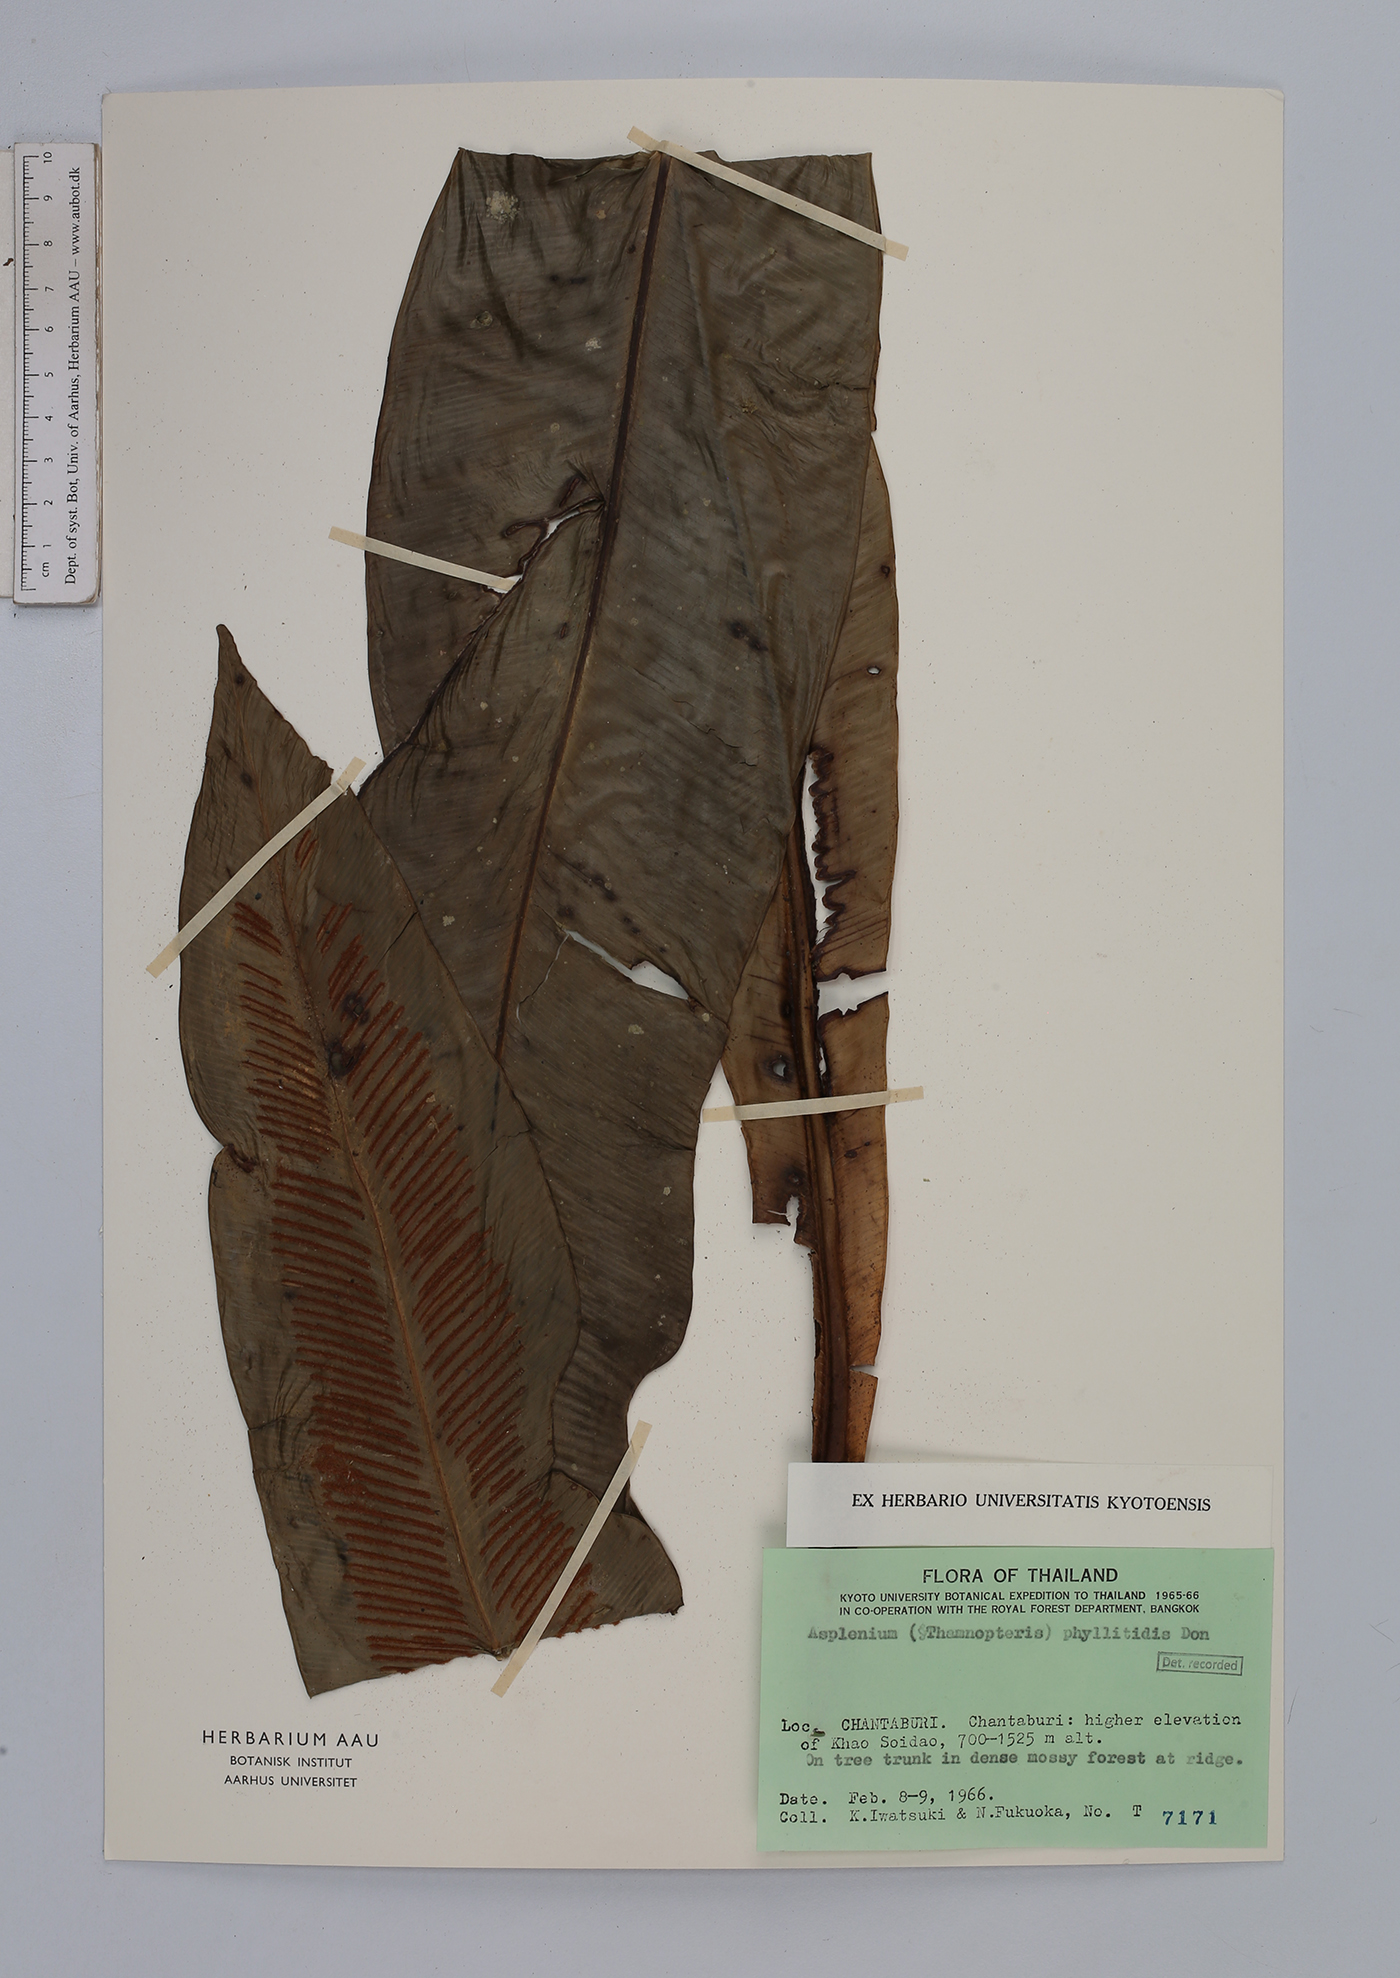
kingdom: Plantae
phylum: Tracheophyta
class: Polypodiopsida
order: Polypodiales
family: Aspleniaceae
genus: Asplenium
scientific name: Asplenium phyllitidis
